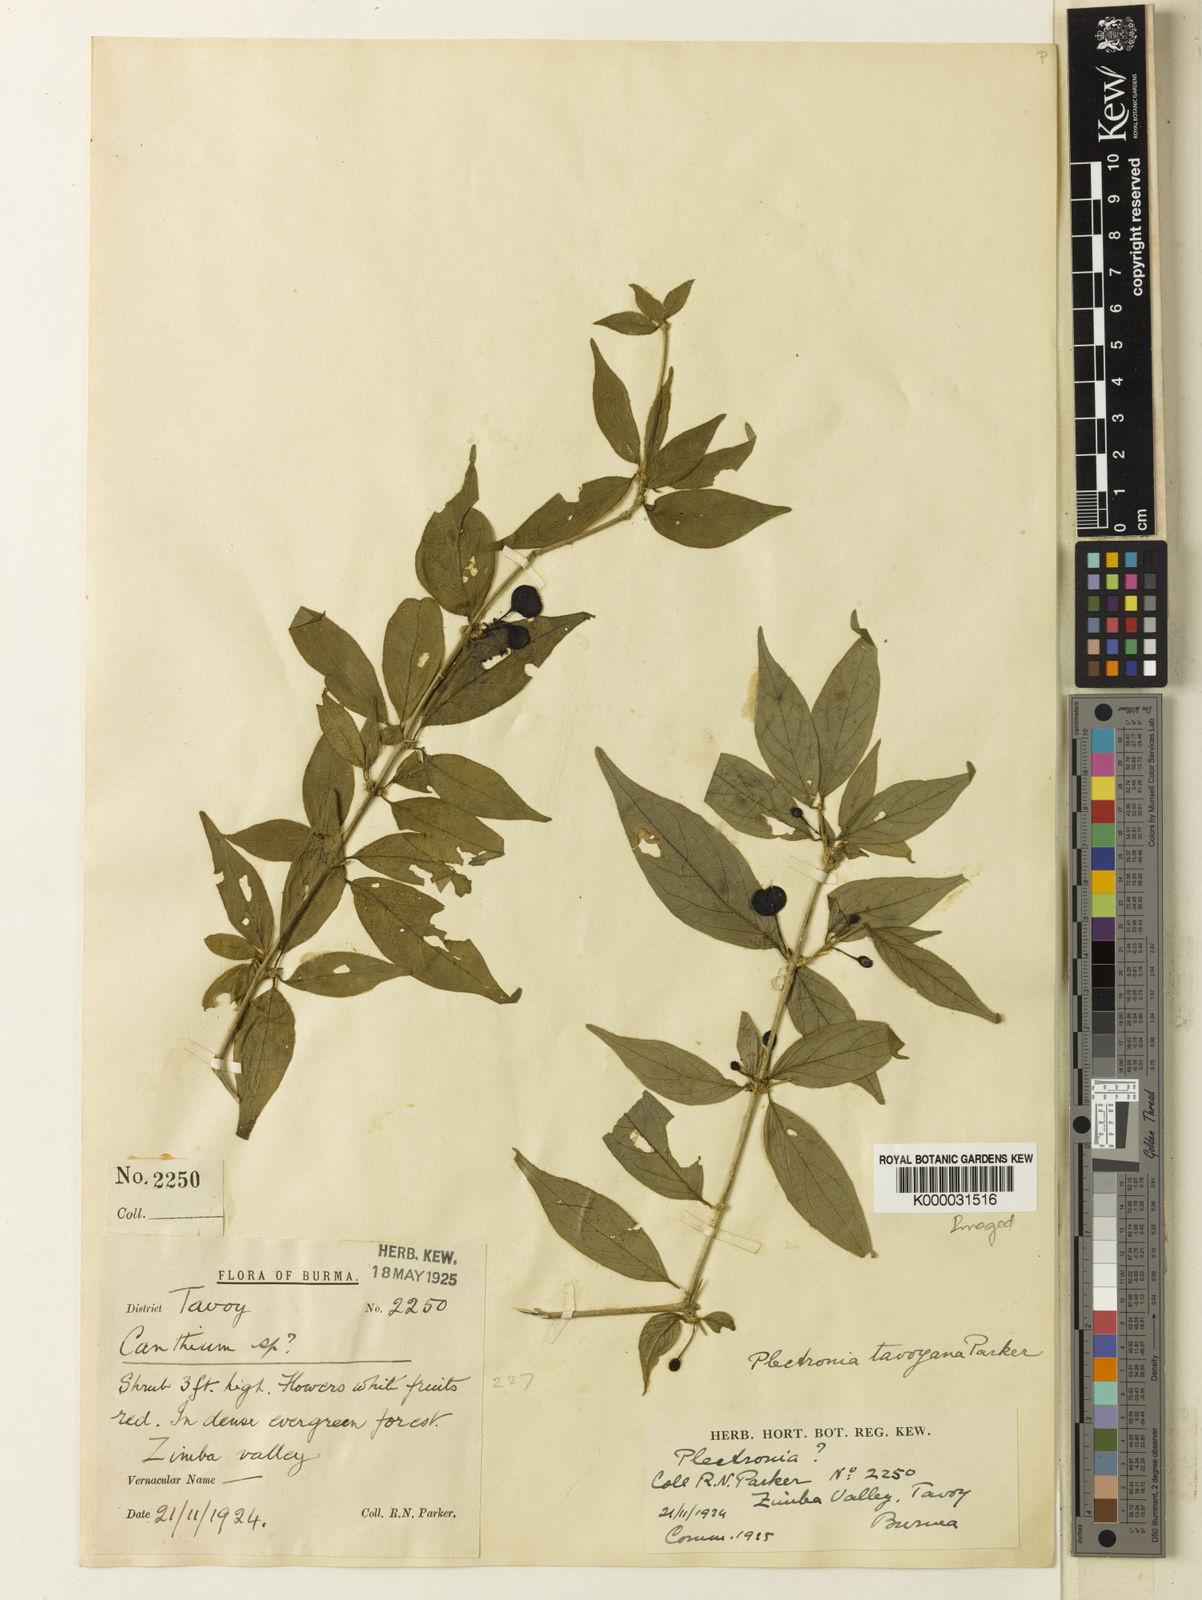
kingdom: Plantae
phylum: Tracheophyta
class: Magnoliopsida
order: Gentianales
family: Rubiaceae
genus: Canthium
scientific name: Canthium
